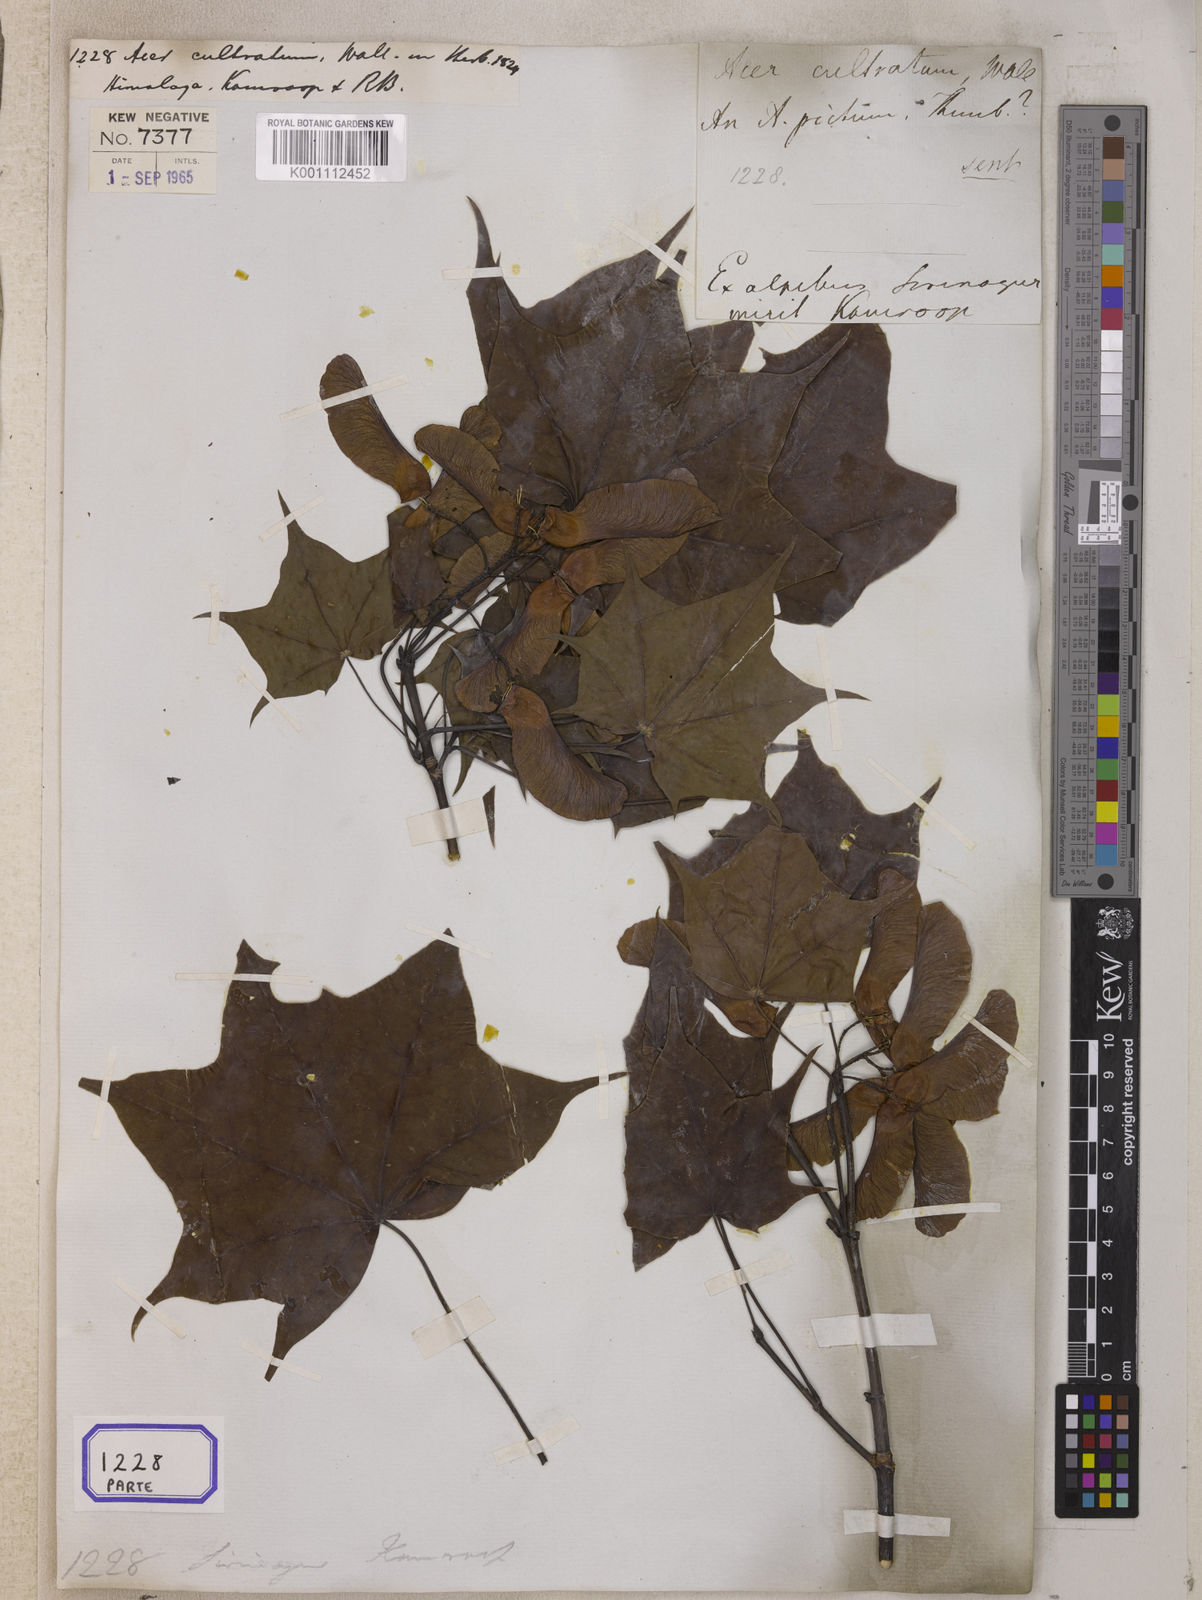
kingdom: Plantae
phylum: Tracheophyta
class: Magnoliopsida
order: Sapindales
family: Sapindaceae
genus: Acer
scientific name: Acer cappadocicum
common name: Cappadocian maple
